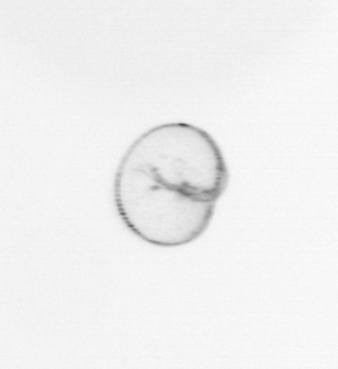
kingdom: Chromista
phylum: Myzozoa
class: Dinophyceae
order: Noctilucales
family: Noctilucaceae
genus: Noctiluca
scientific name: Noctiluca scintillans
